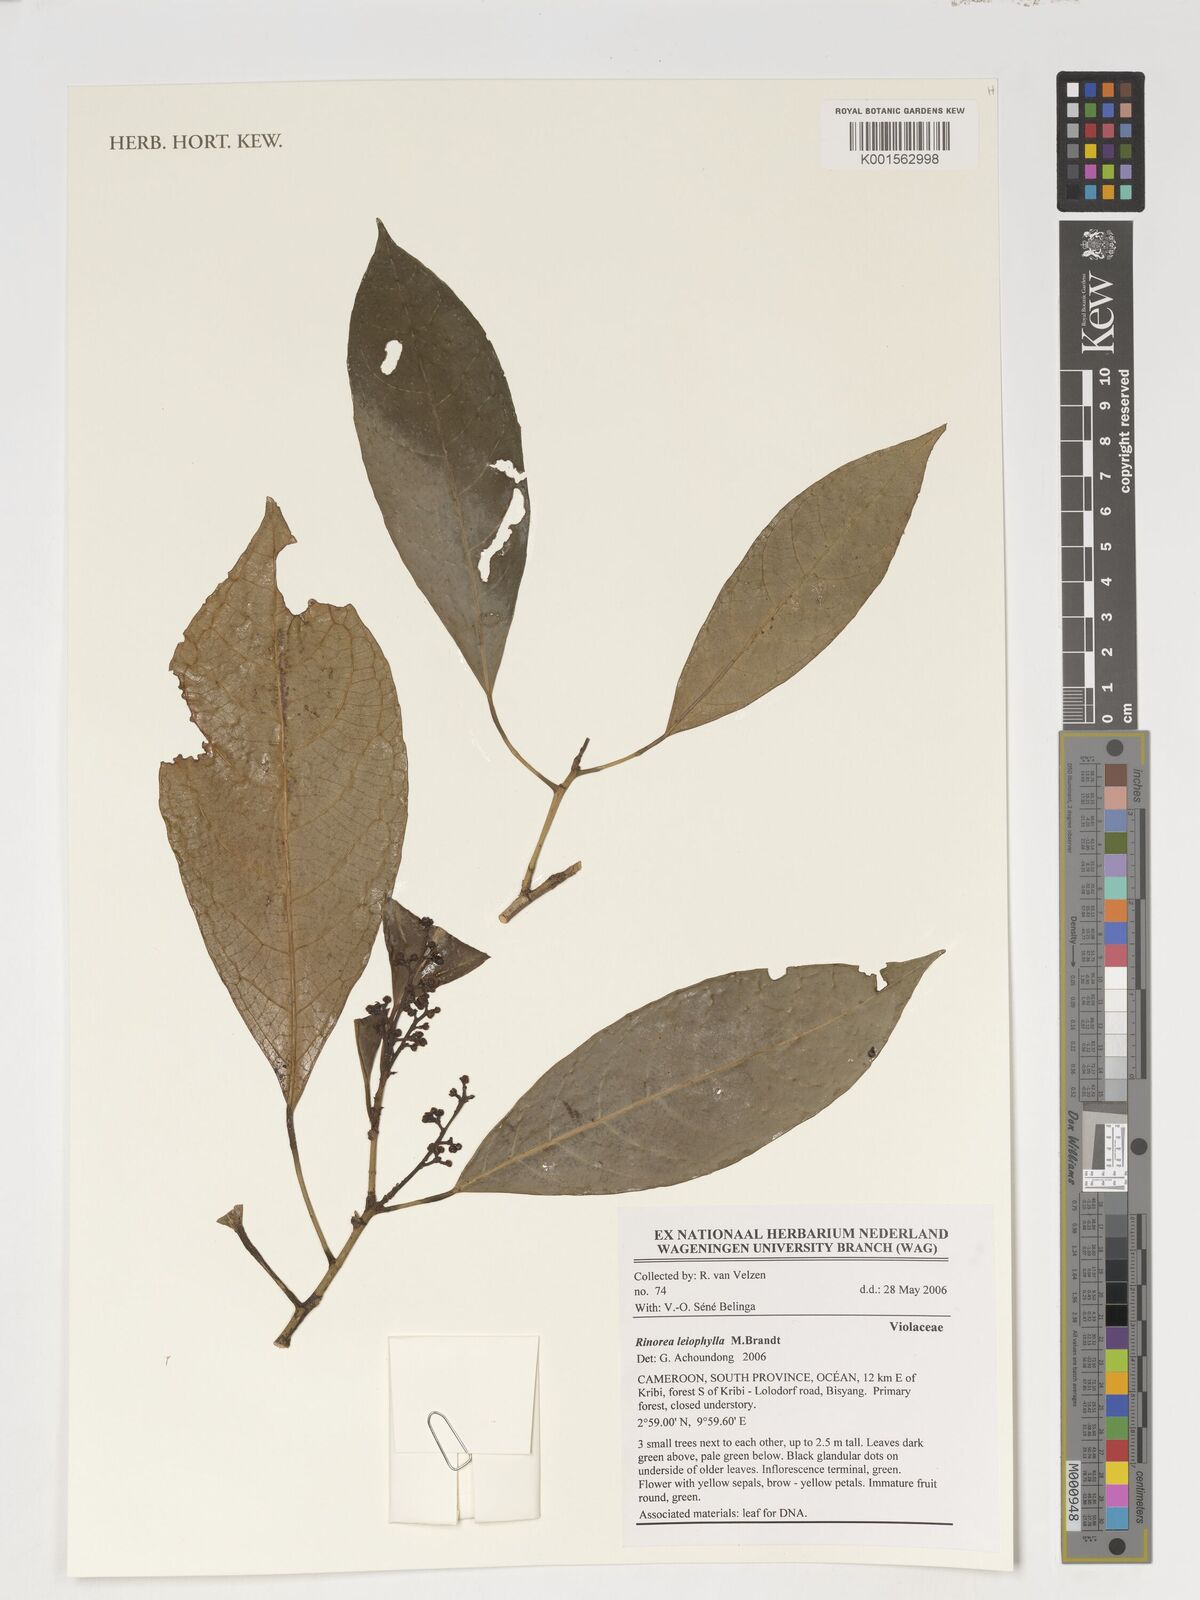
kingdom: Plantae
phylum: Tracheophyta
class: Magnoliopsida
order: Malpighiales
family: Violaceae
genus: Rinorea
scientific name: Rinorea leiophylla
